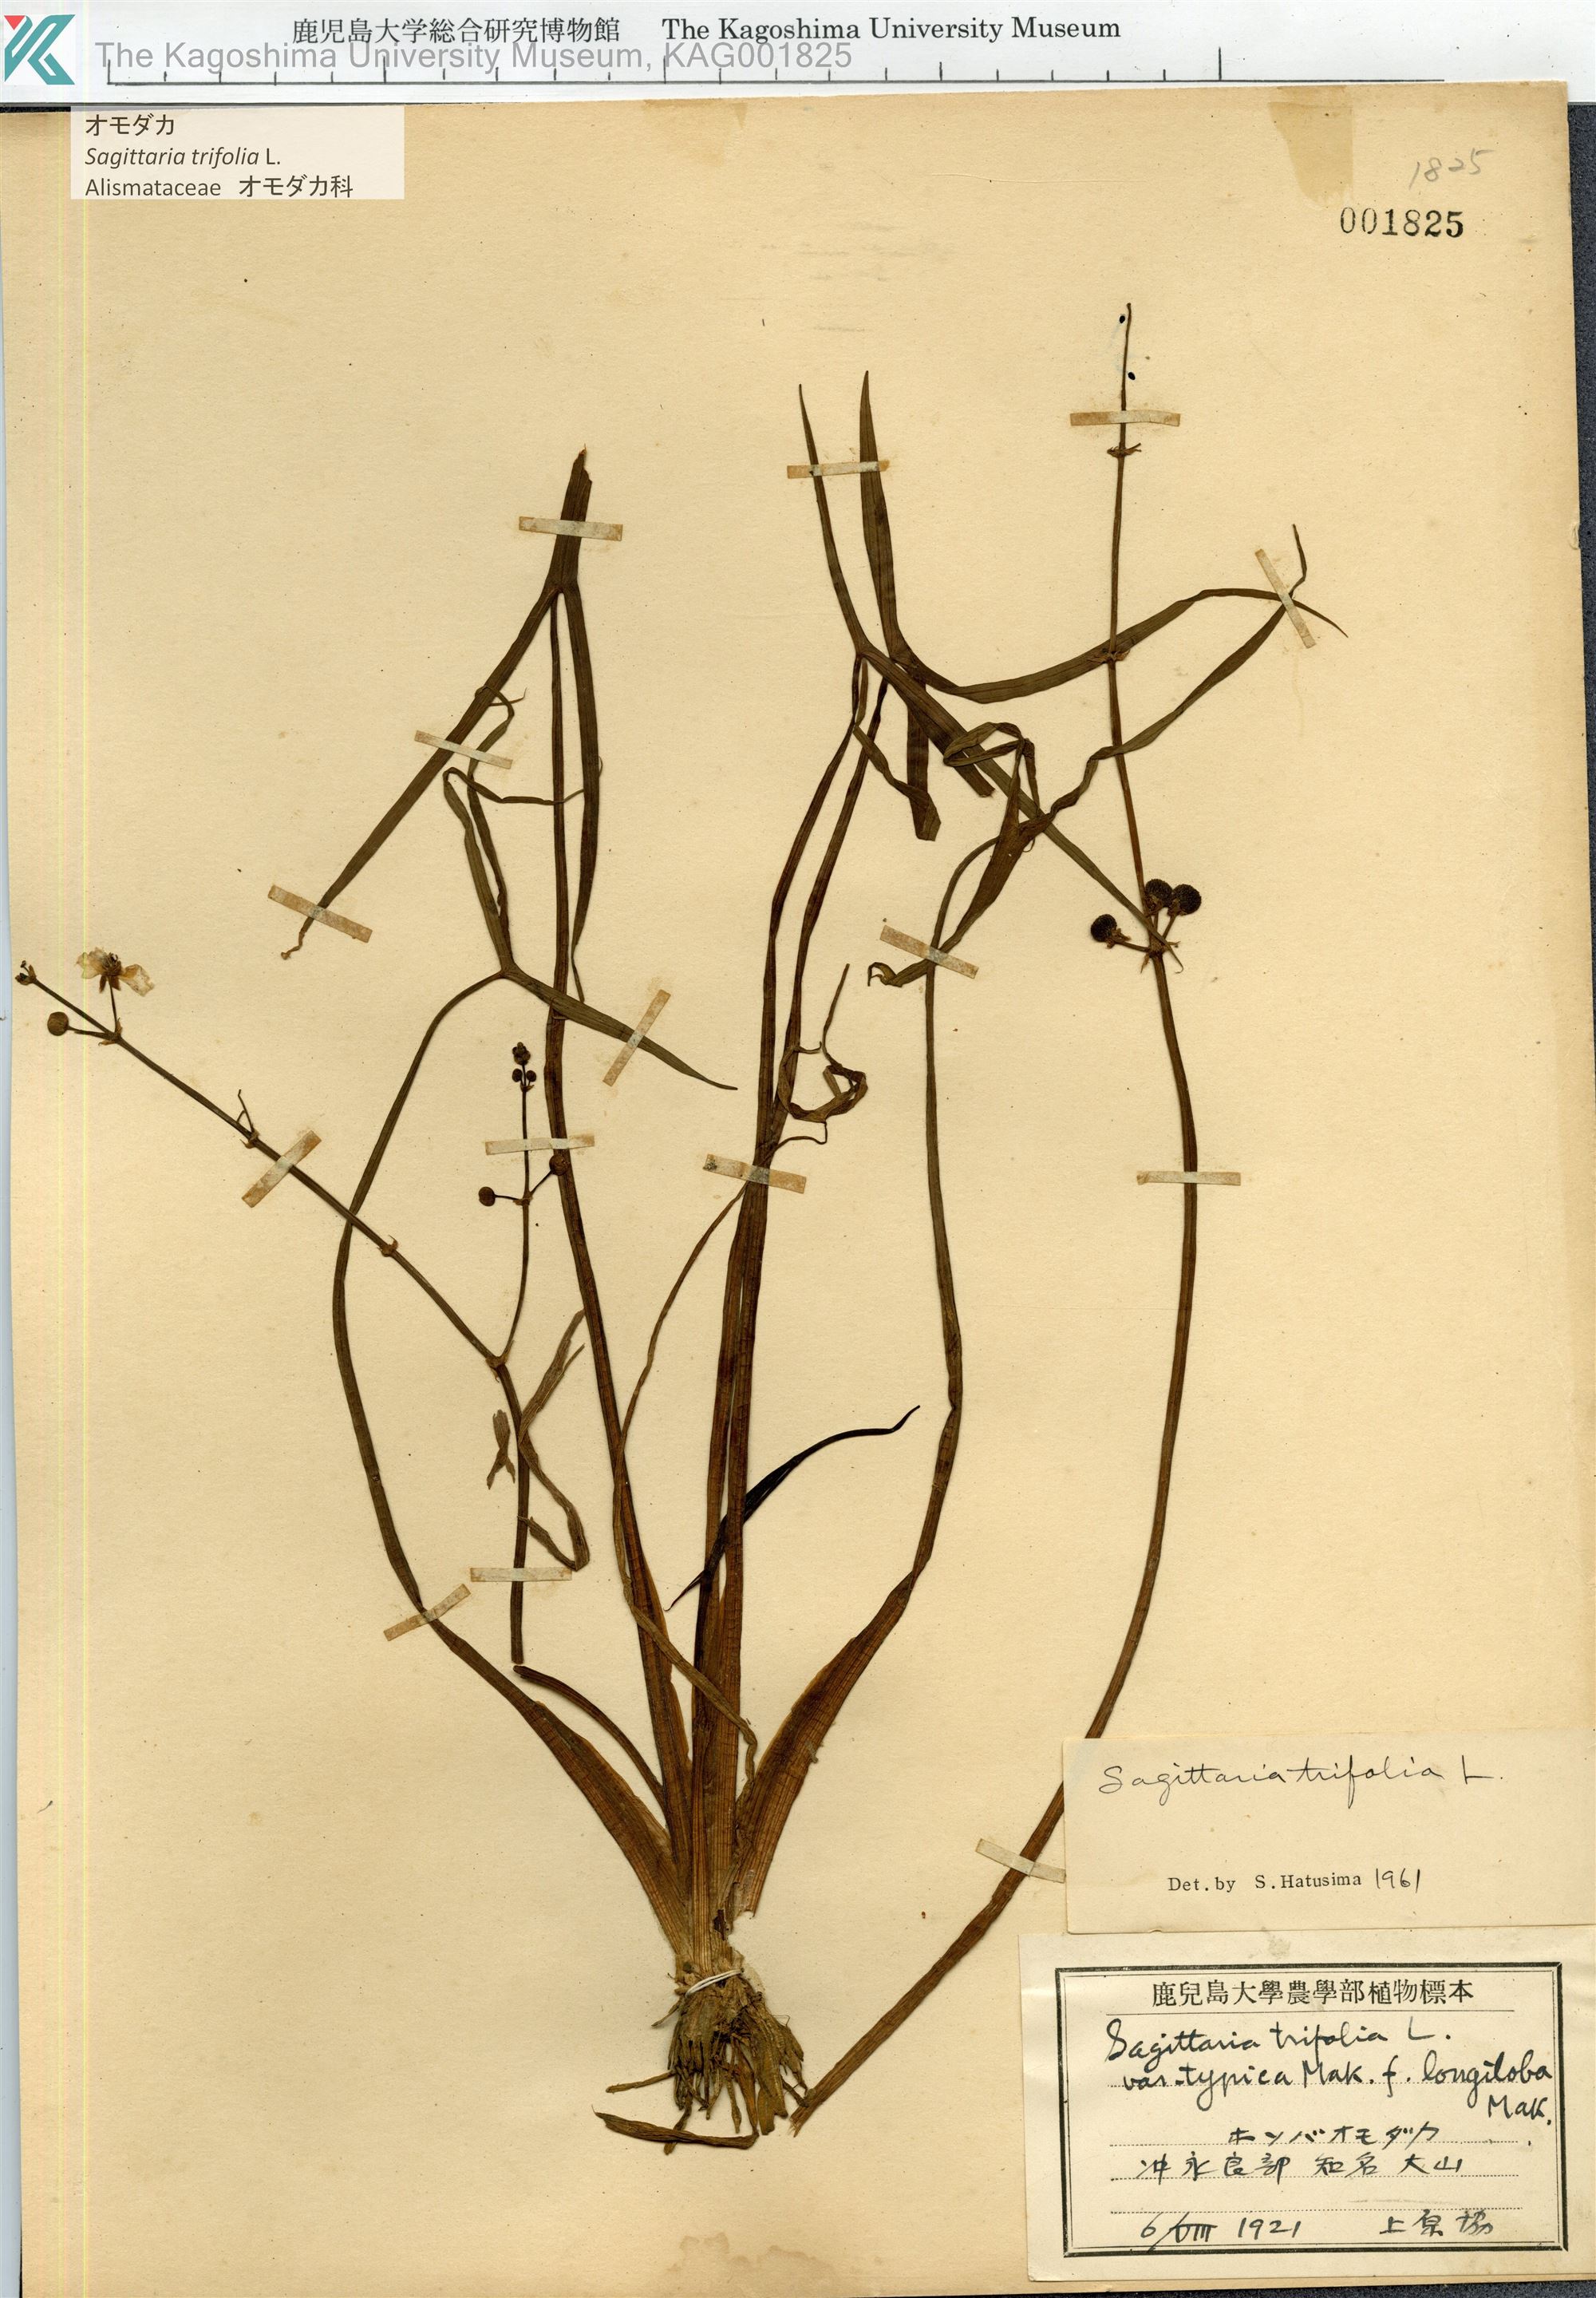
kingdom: Plantae
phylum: Tracheophyta
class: Liliopsida
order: Alismatales
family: Alismataceae
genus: Sagittaria
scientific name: Sagittaria trifolia
